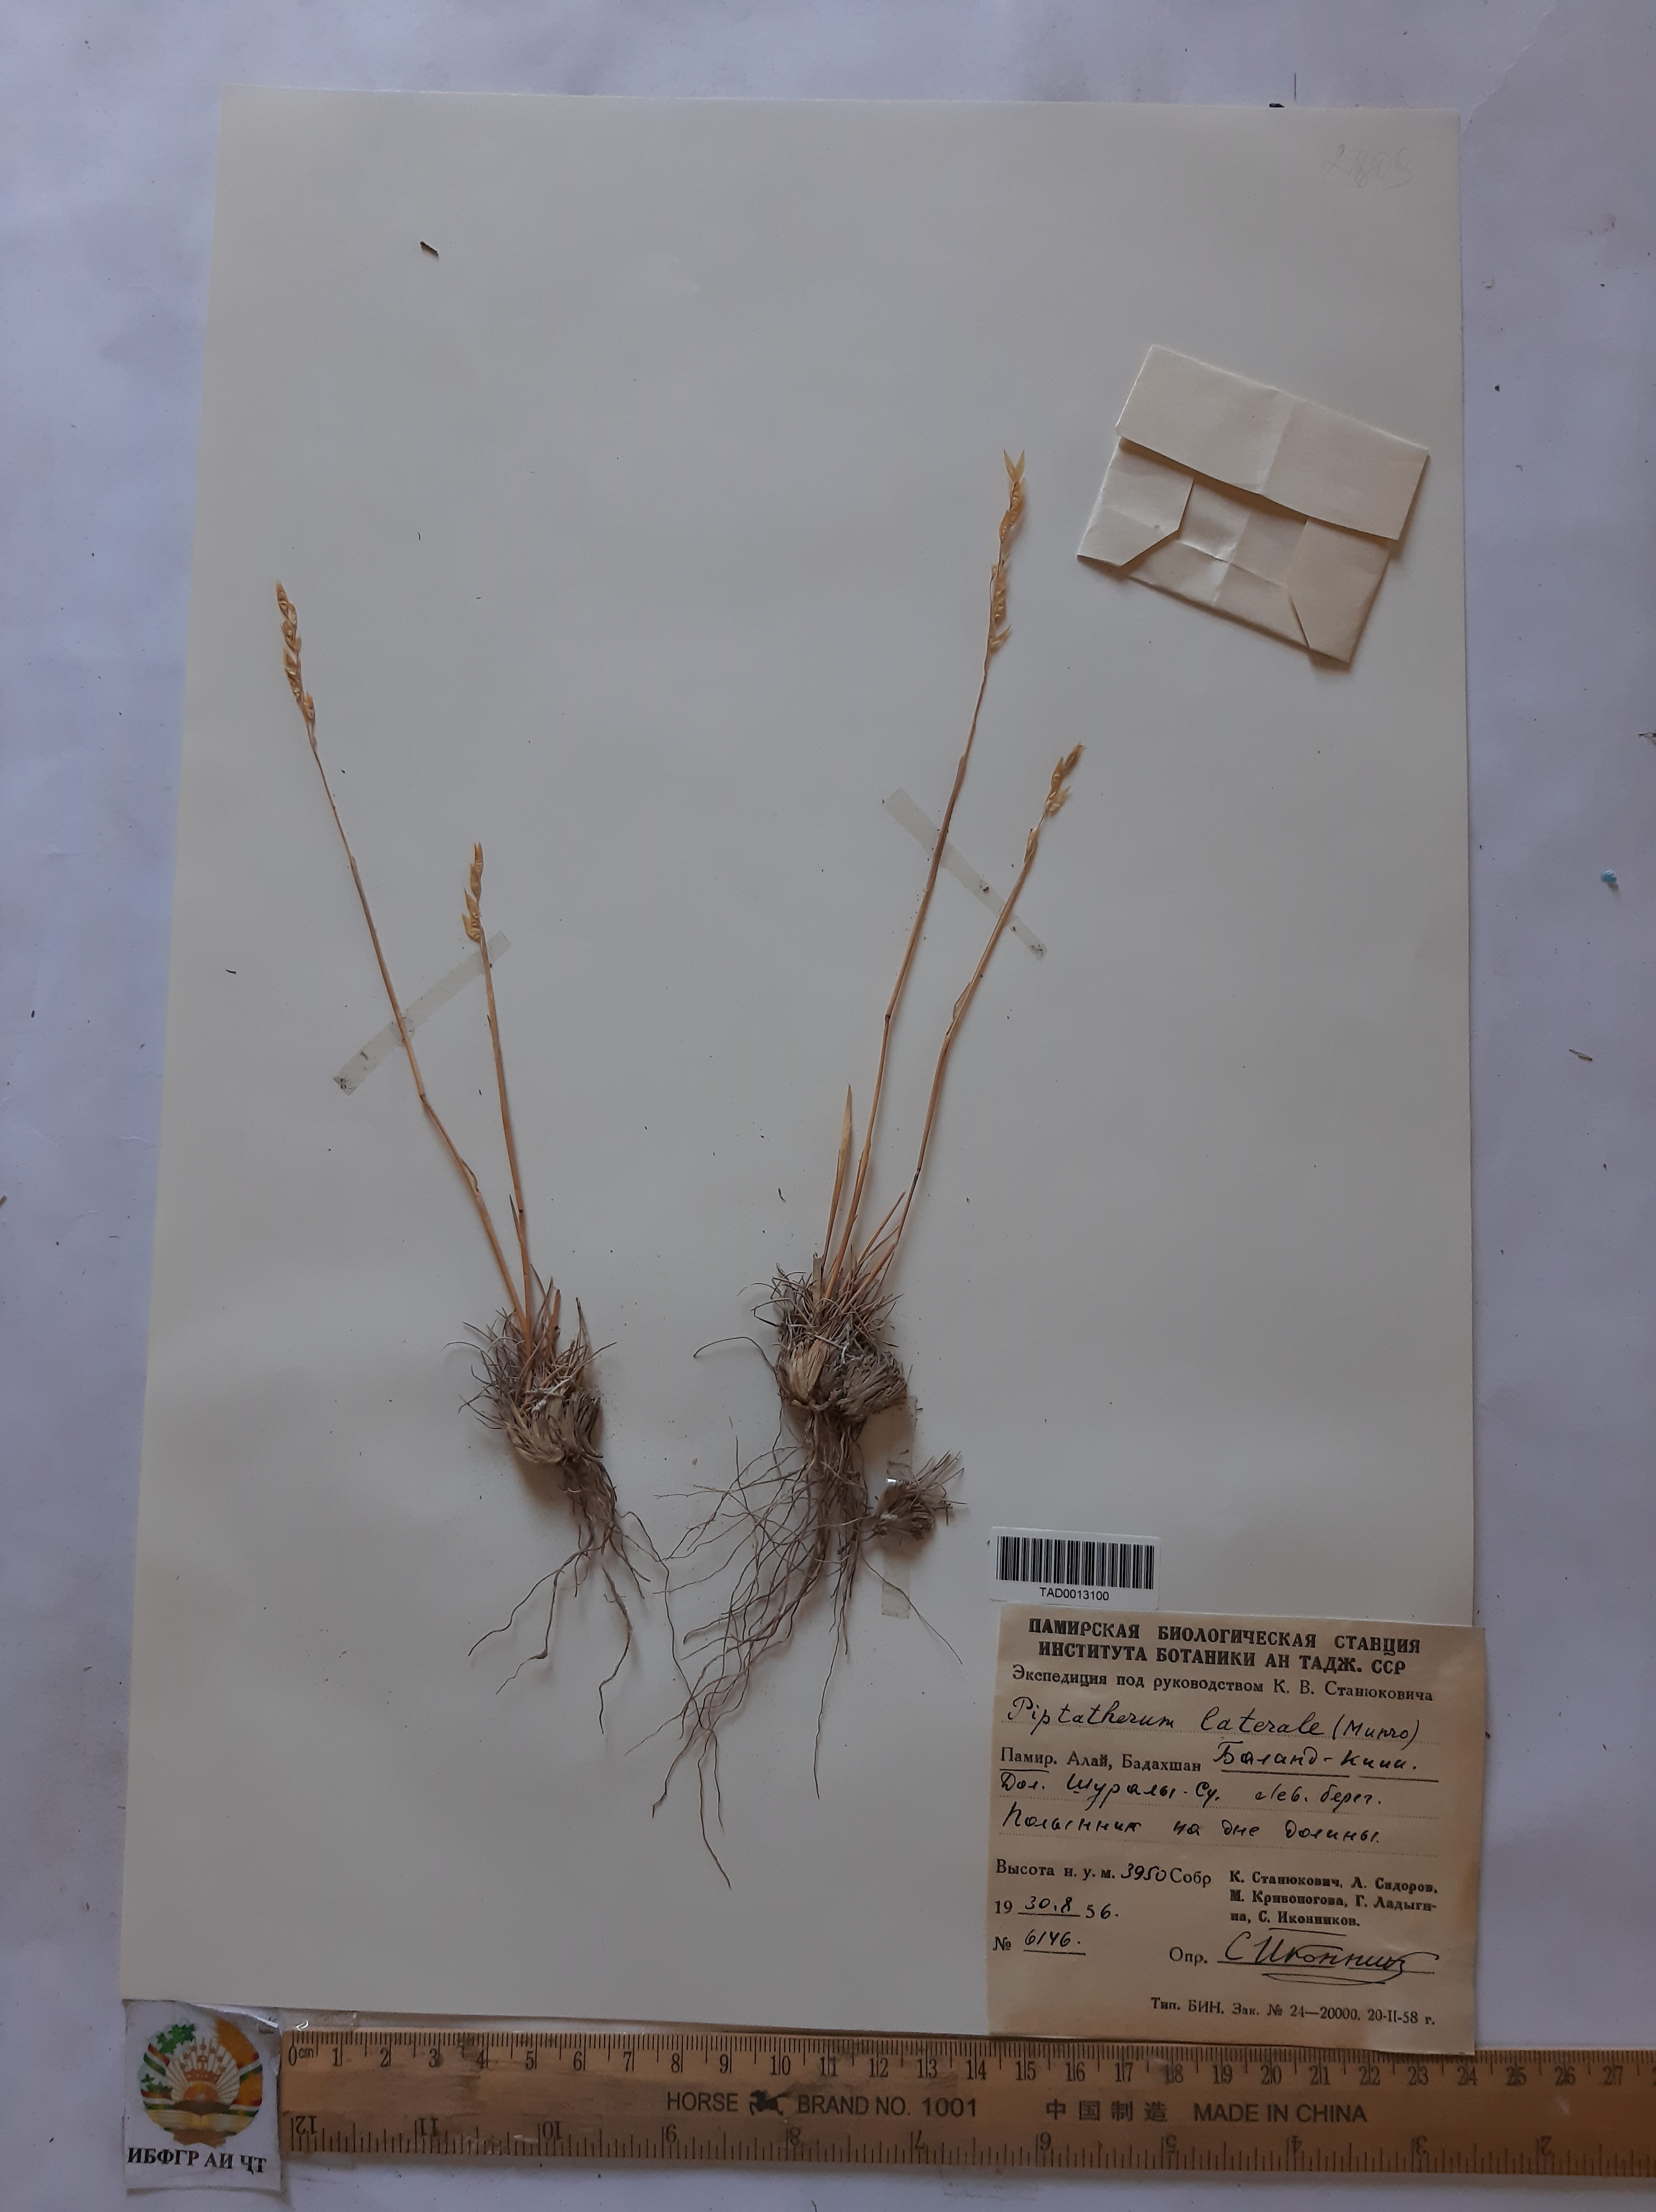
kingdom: Plantae
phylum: Tracheophyta
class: Liliopsida
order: Poales
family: Poaceae
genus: Piptatherum
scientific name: Piptatherum laterale
